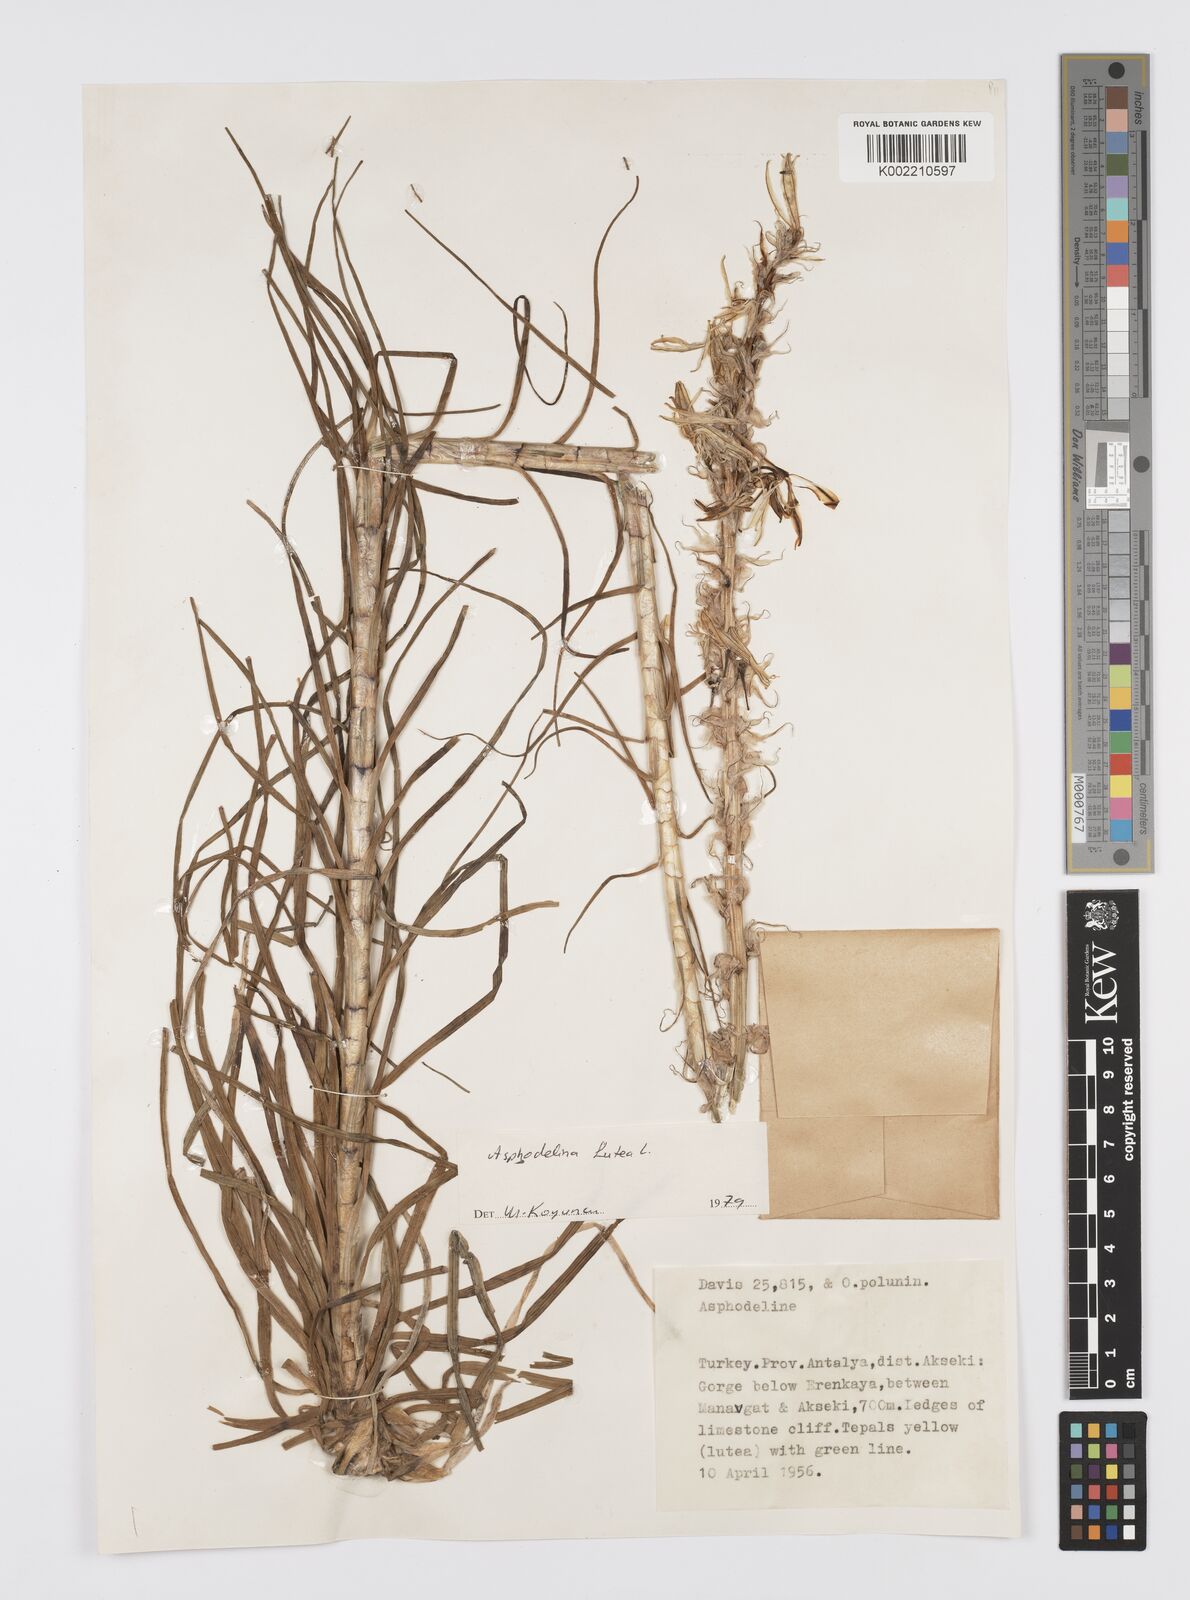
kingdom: Plantae
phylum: Tracheophyta
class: Liliopsida
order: Asparagales
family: Asphodelaceae
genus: Asphodeline
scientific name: Asphodeline lutea
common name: Yellow asphodel
